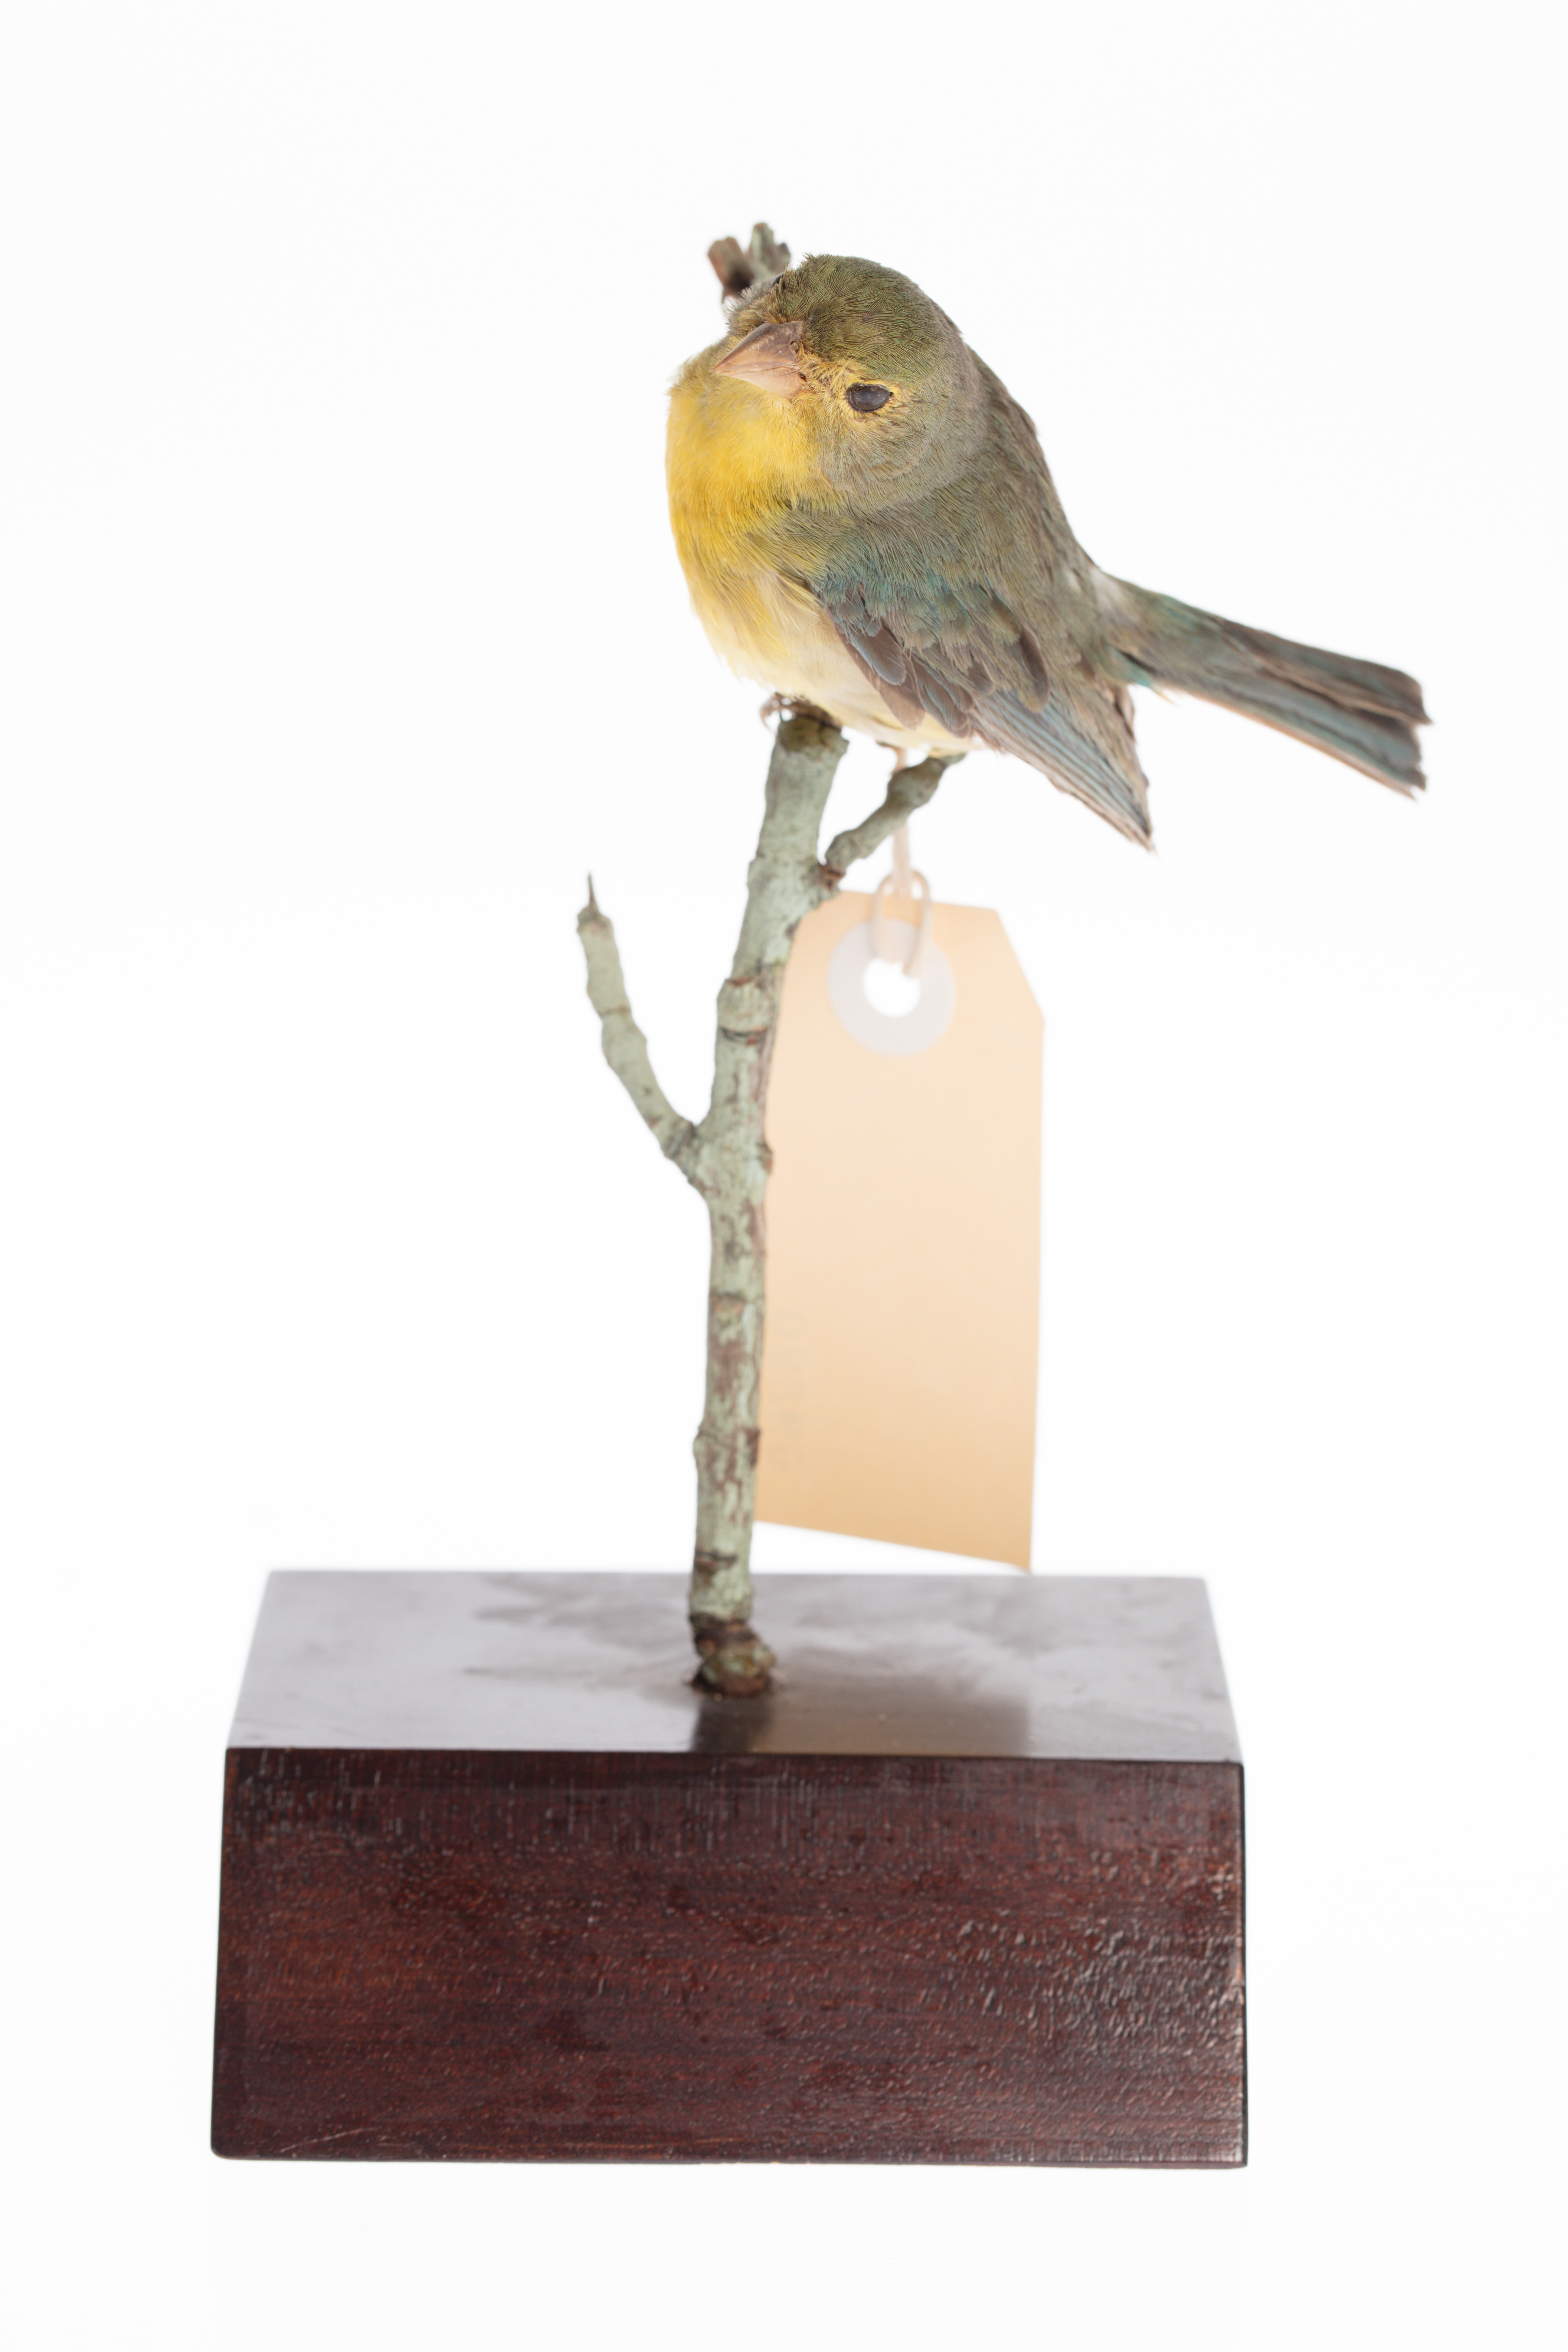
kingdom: Animalia
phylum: Chordata
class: Aves
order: Passeriformes
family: Fringillidae
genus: Euphonia
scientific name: Euphonia
